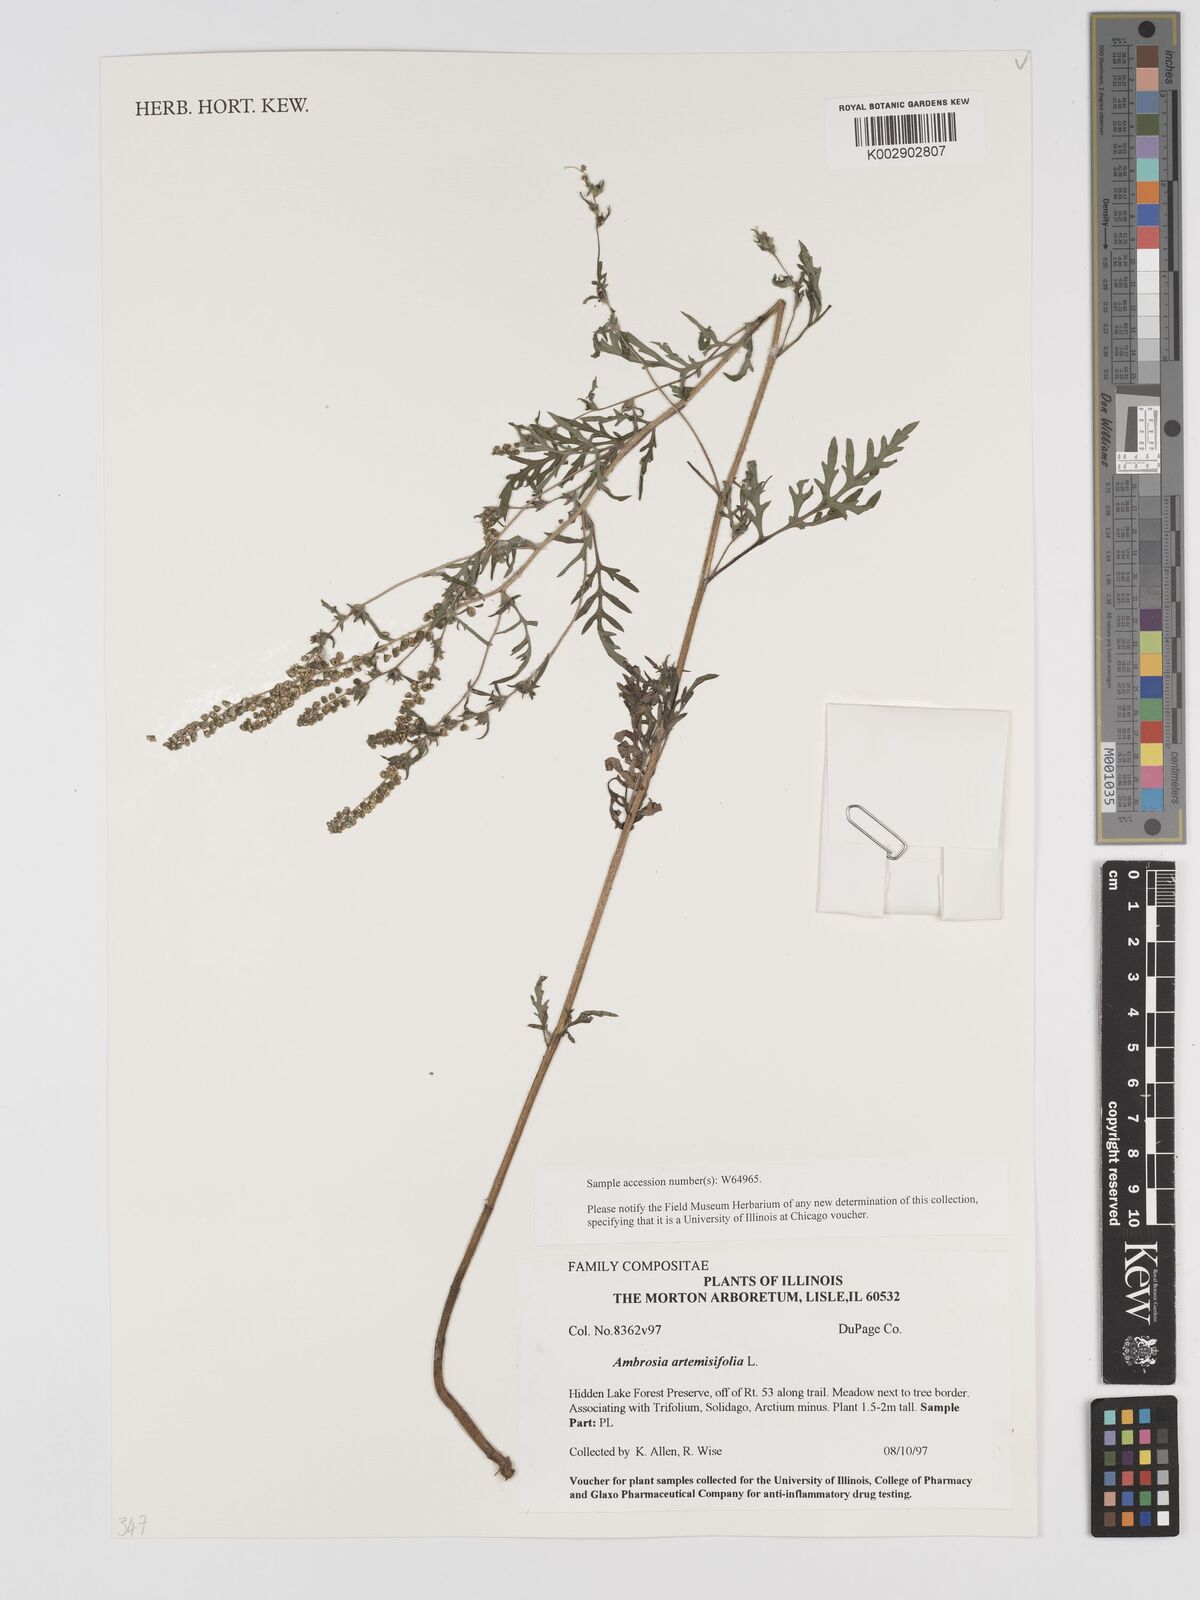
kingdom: Plantae
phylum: Tracheophyta
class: Magnoliopsida
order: Asterales
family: Asteraceae
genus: Ambrosia
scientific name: Ambrosia artemisiifolia
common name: Annual ragweed
